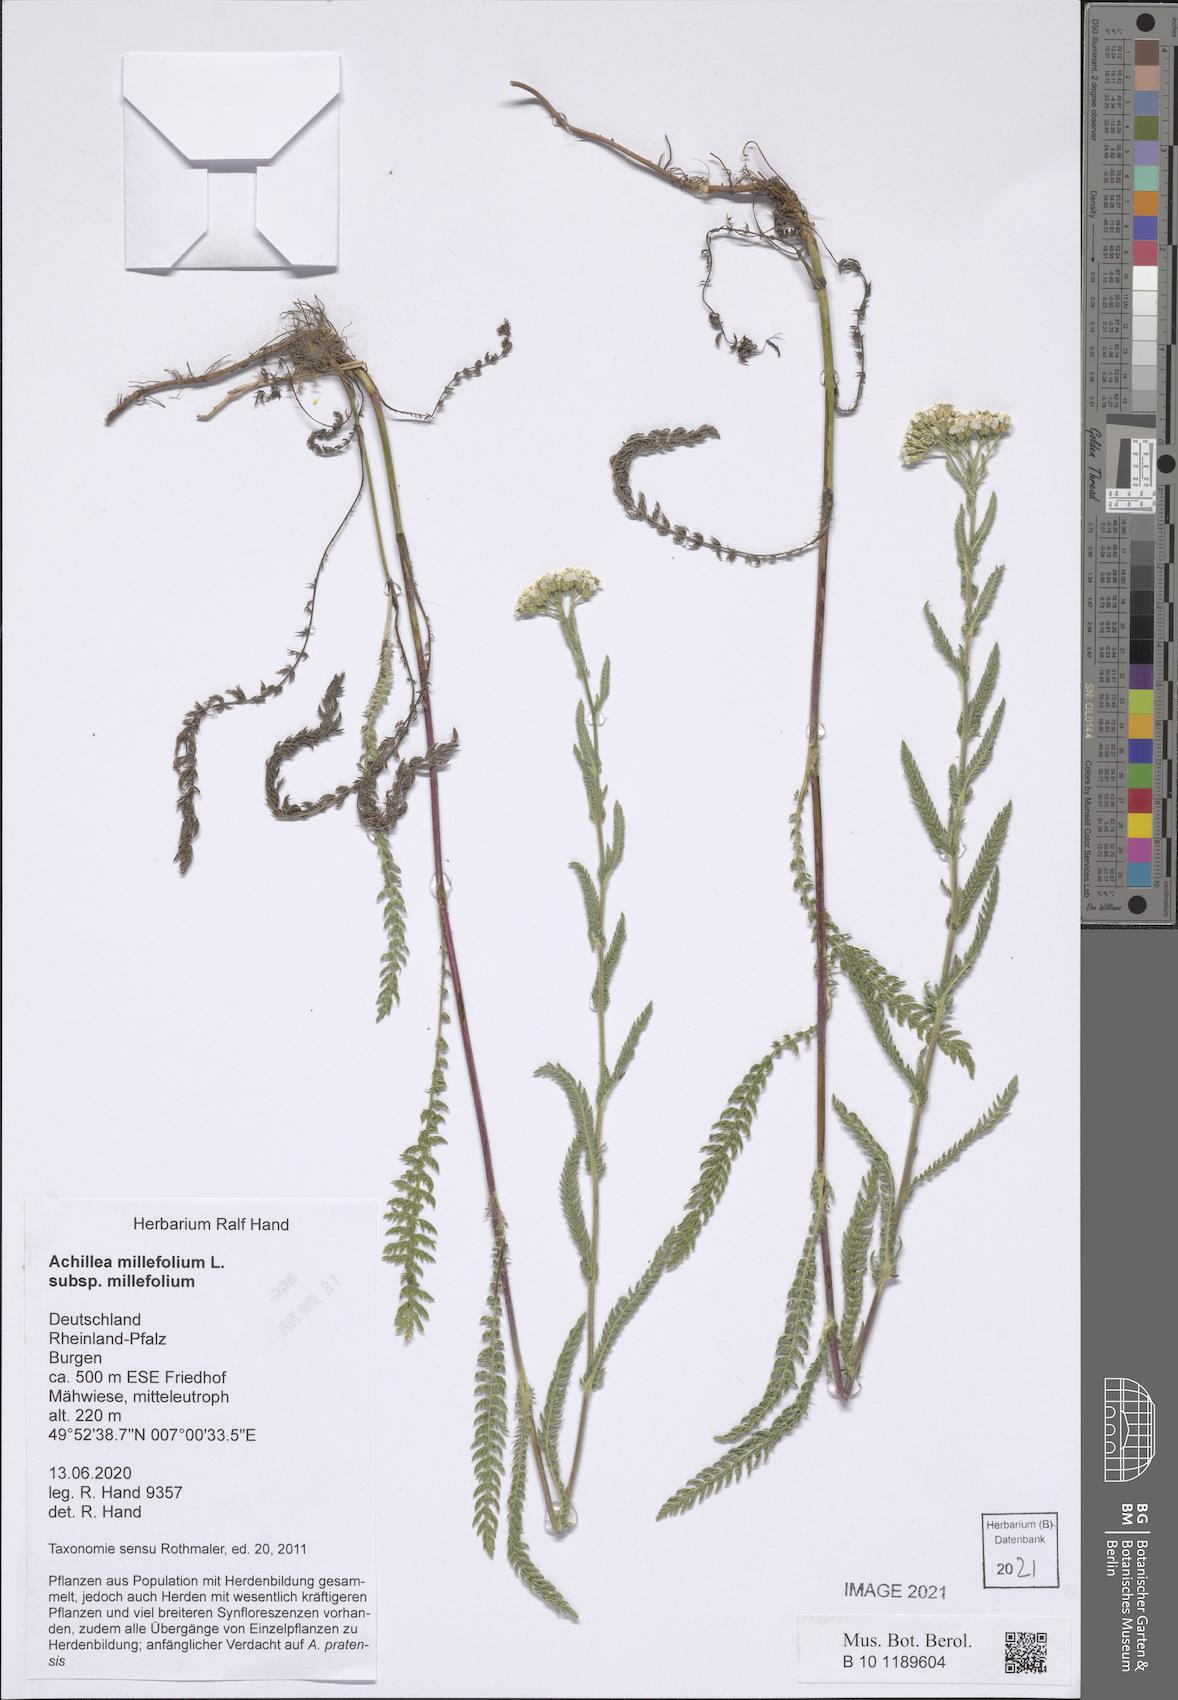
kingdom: Plantae
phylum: Tracheophyta
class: Magnoliopsida
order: Asterales
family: Asteraceae
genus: Achillea
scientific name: Achillea millefolium
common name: Yarrow
